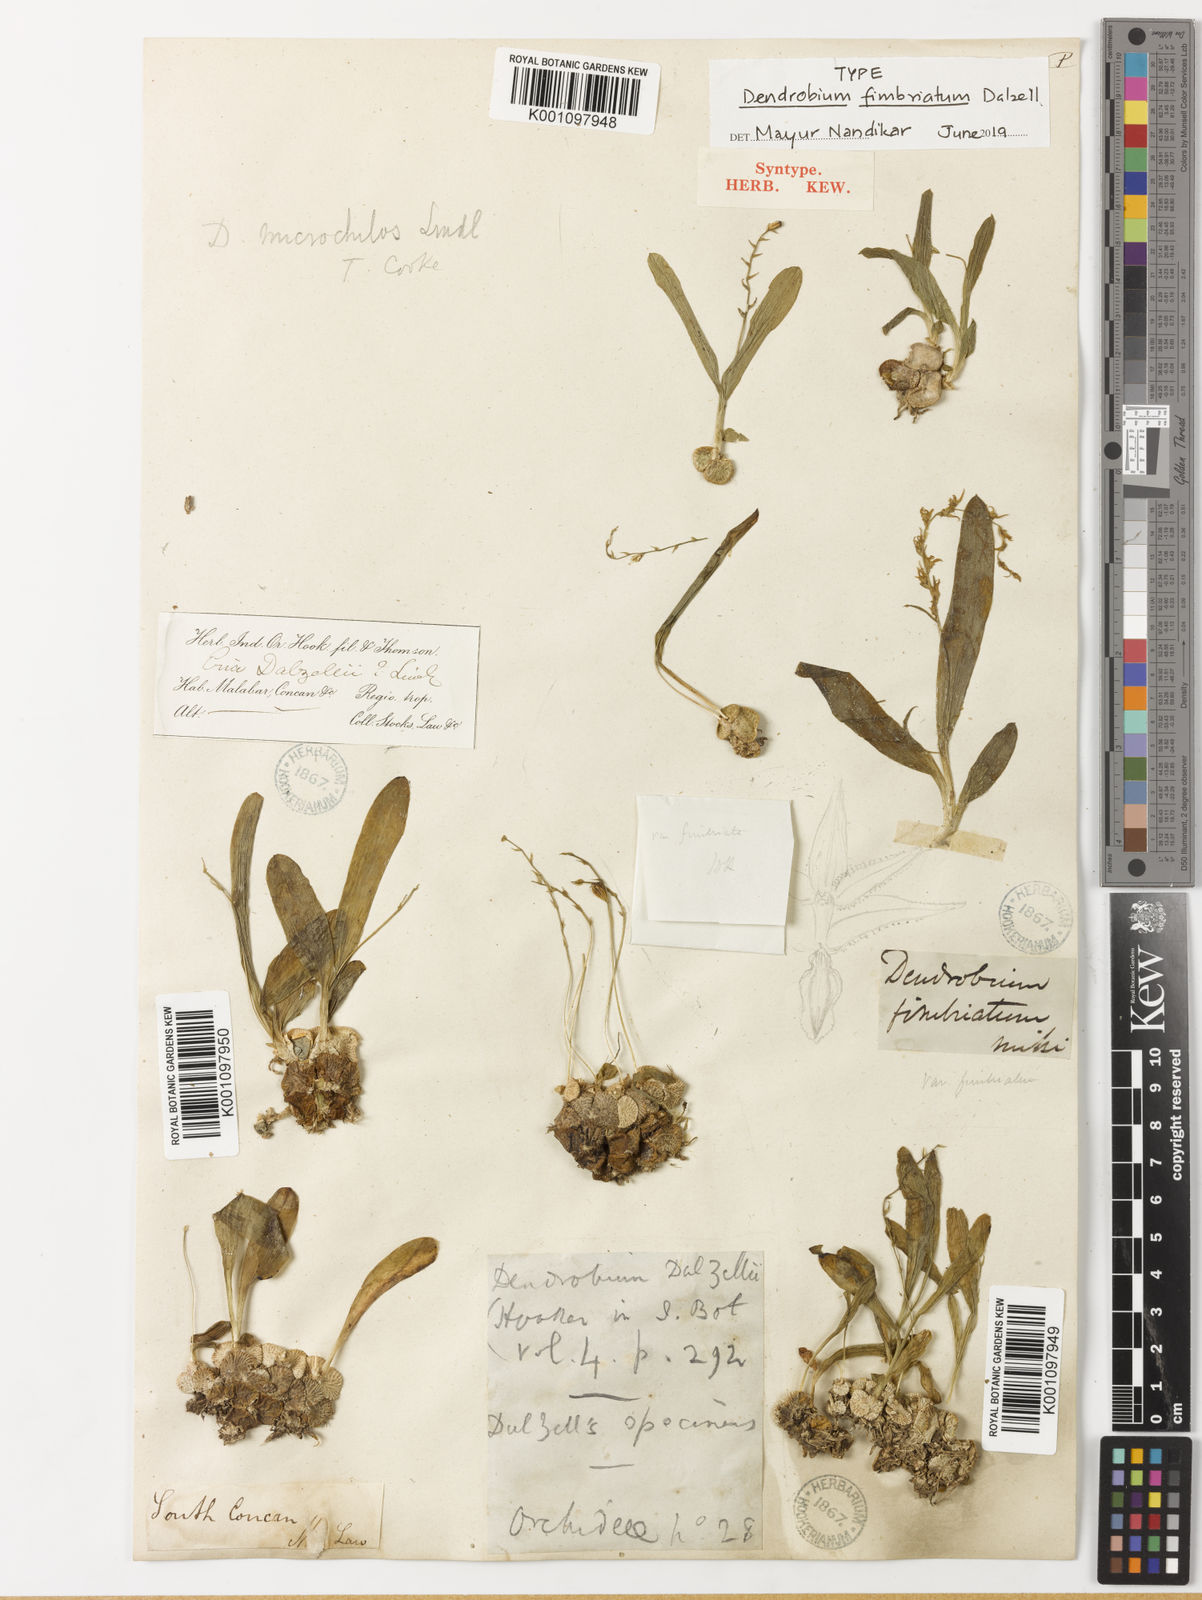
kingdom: Plantae
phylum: Tracheophyta
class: Liliopsida
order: Asparagales
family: Orchidaceae
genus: Porpax
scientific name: Porpax filiformis
